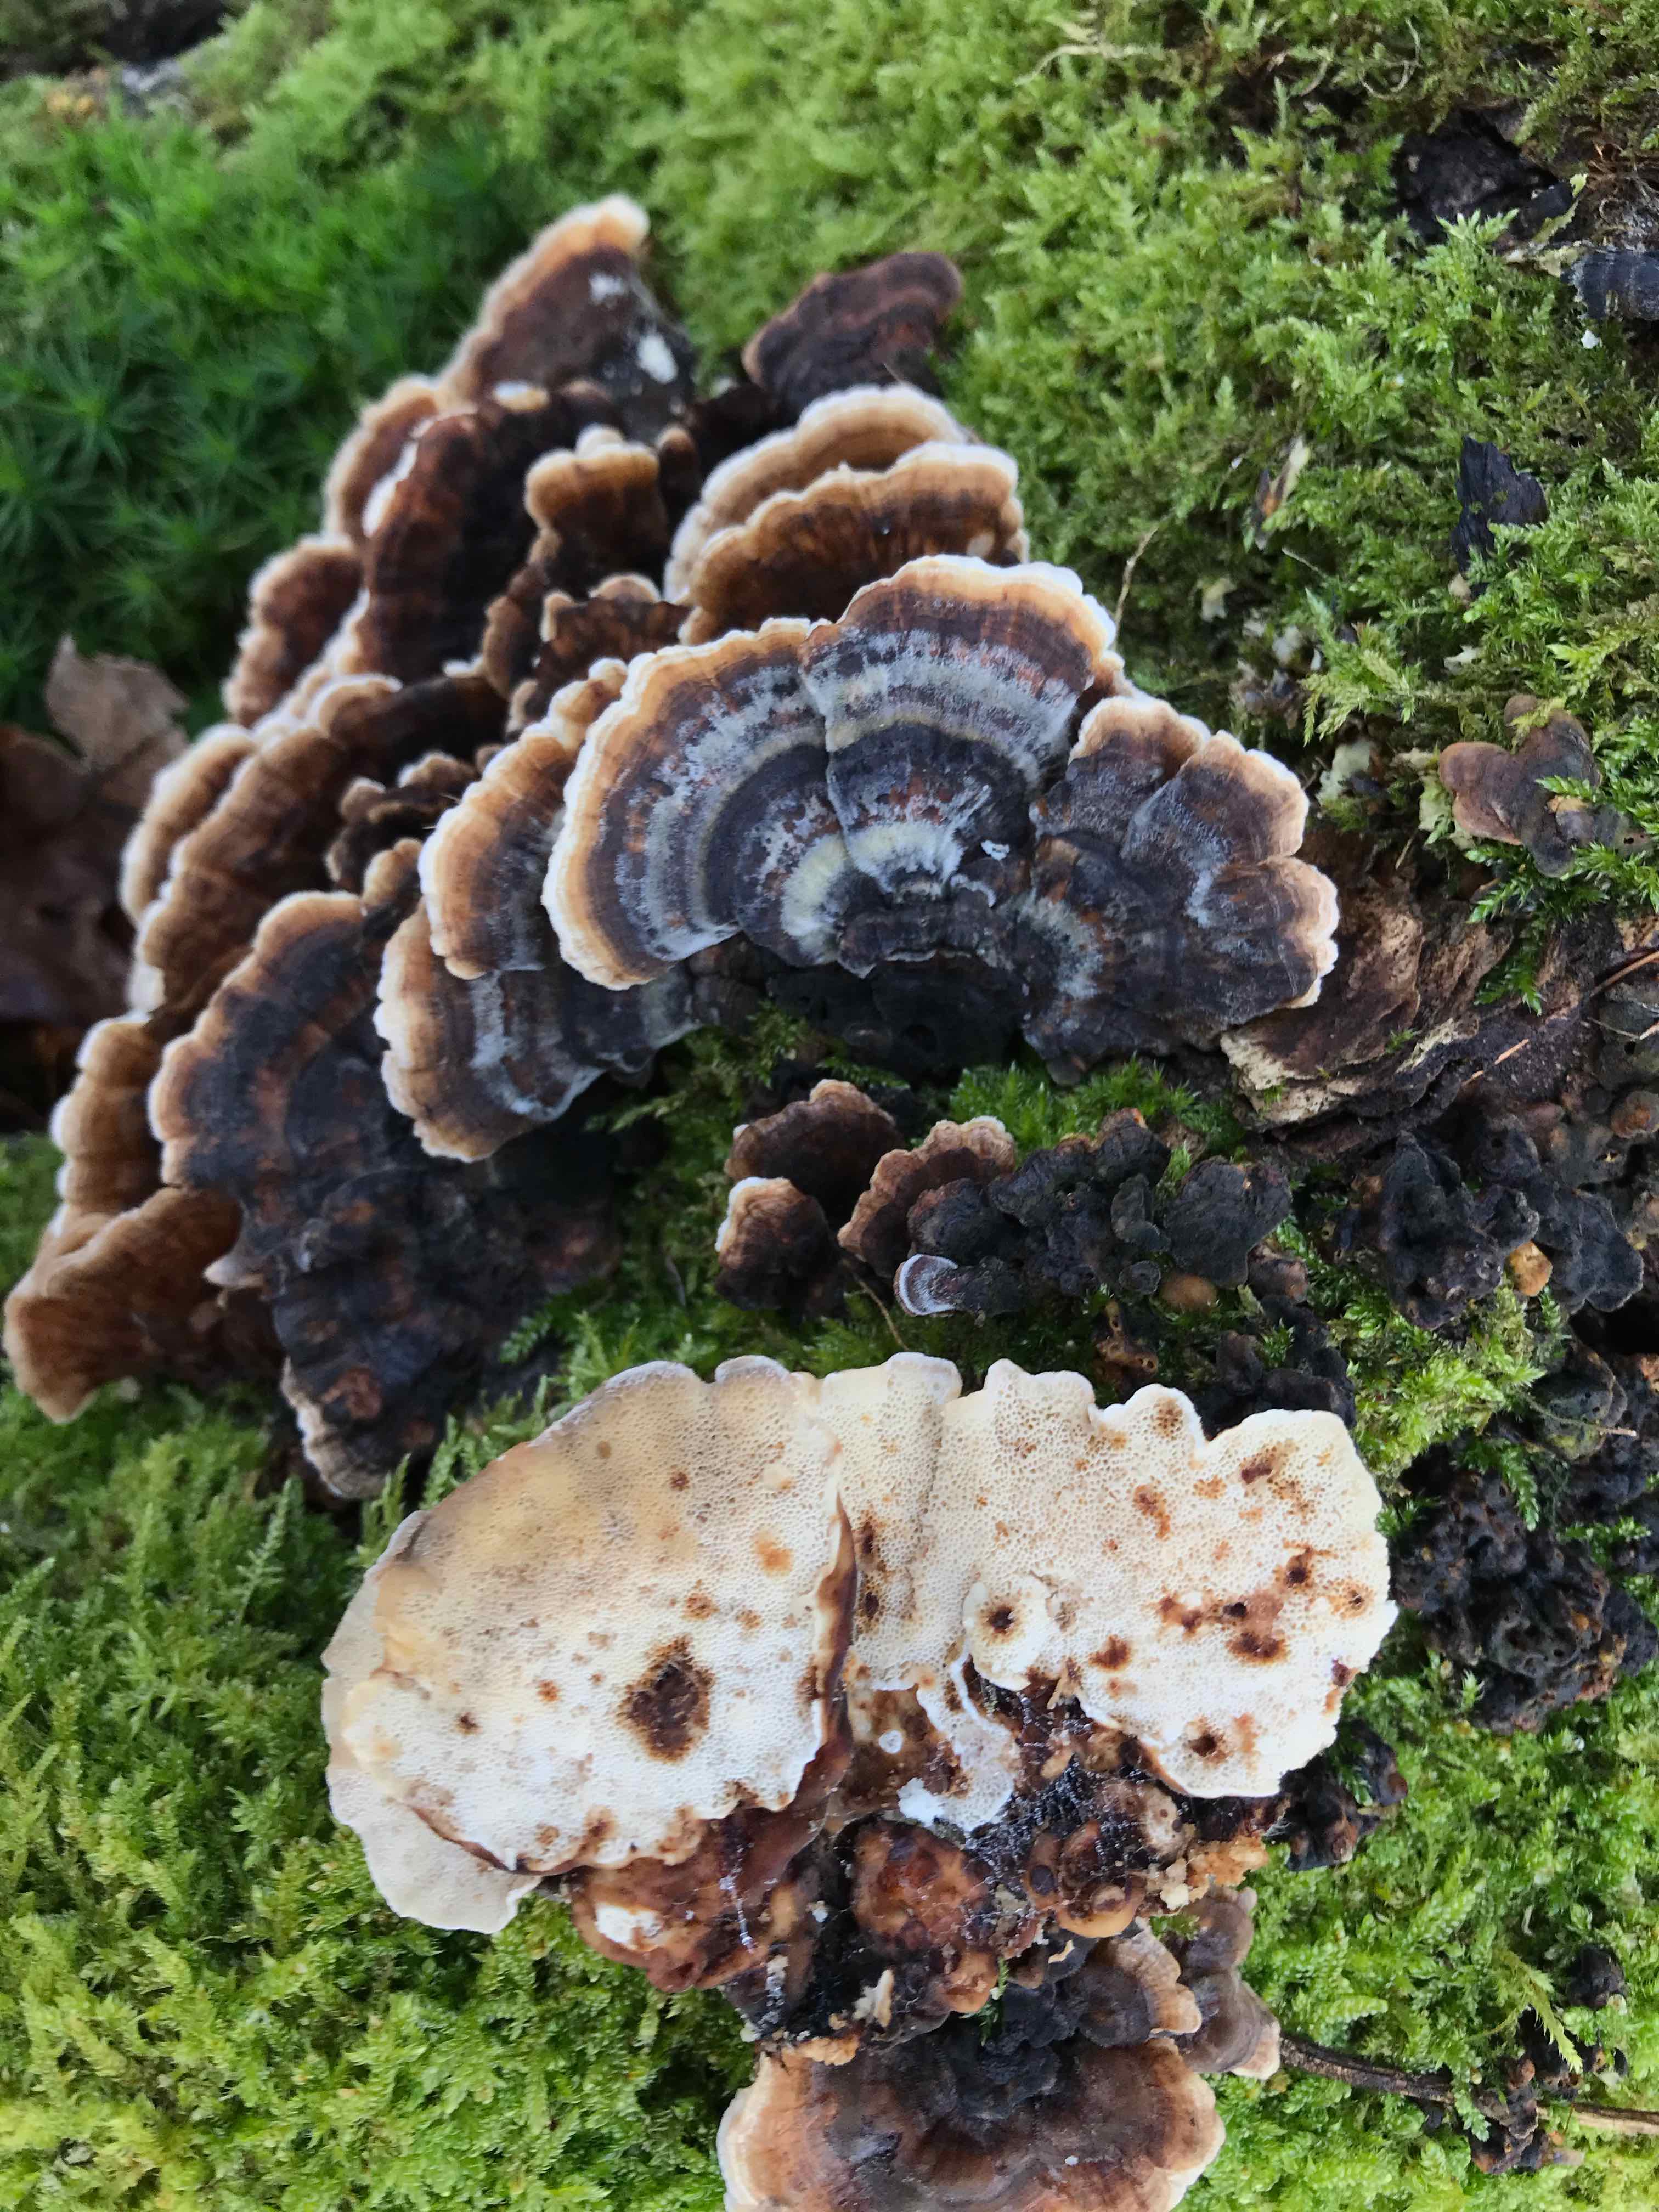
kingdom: Fungi
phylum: Basidiomycota
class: Agaricomycetes
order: Polyporales
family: Polyporaceae
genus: Trametes
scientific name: Trametes versicolor
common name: broget læderporesvamp
